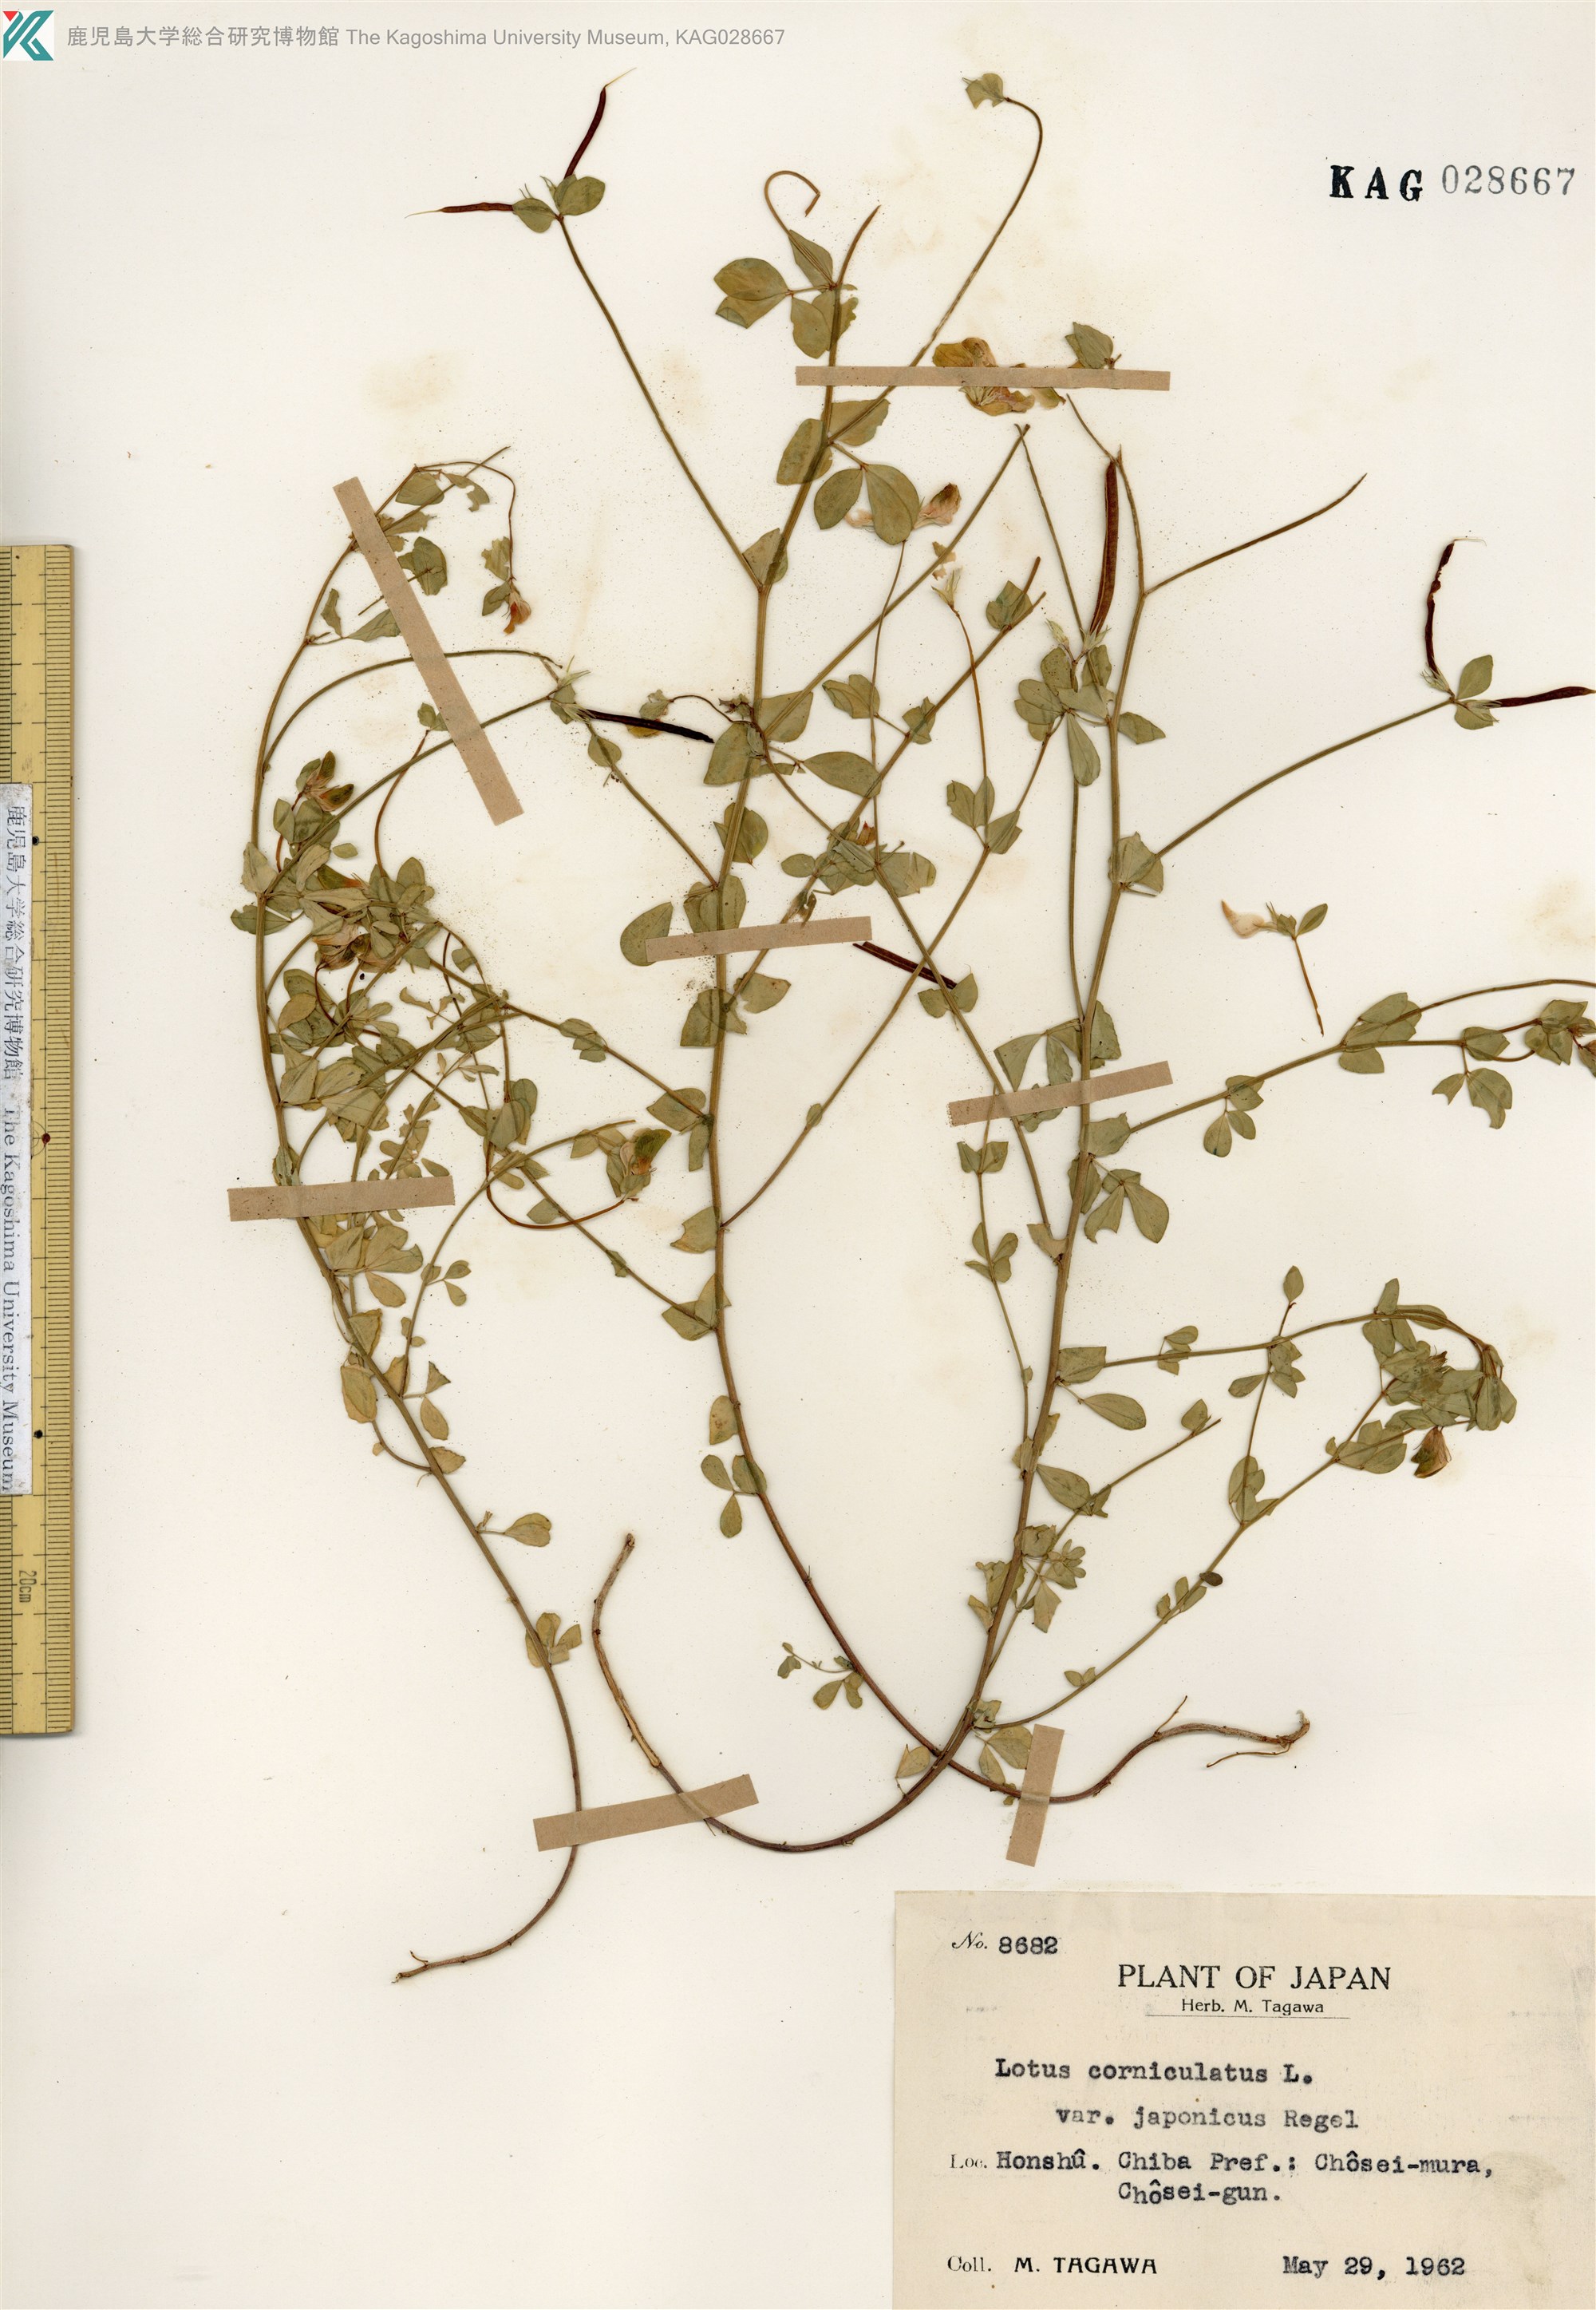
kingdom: Plantae
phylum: Tracheophyta
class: Magnoliopsida
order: Fabales
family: Fabaceae
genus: Lotus
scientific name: Lotus japonicus
